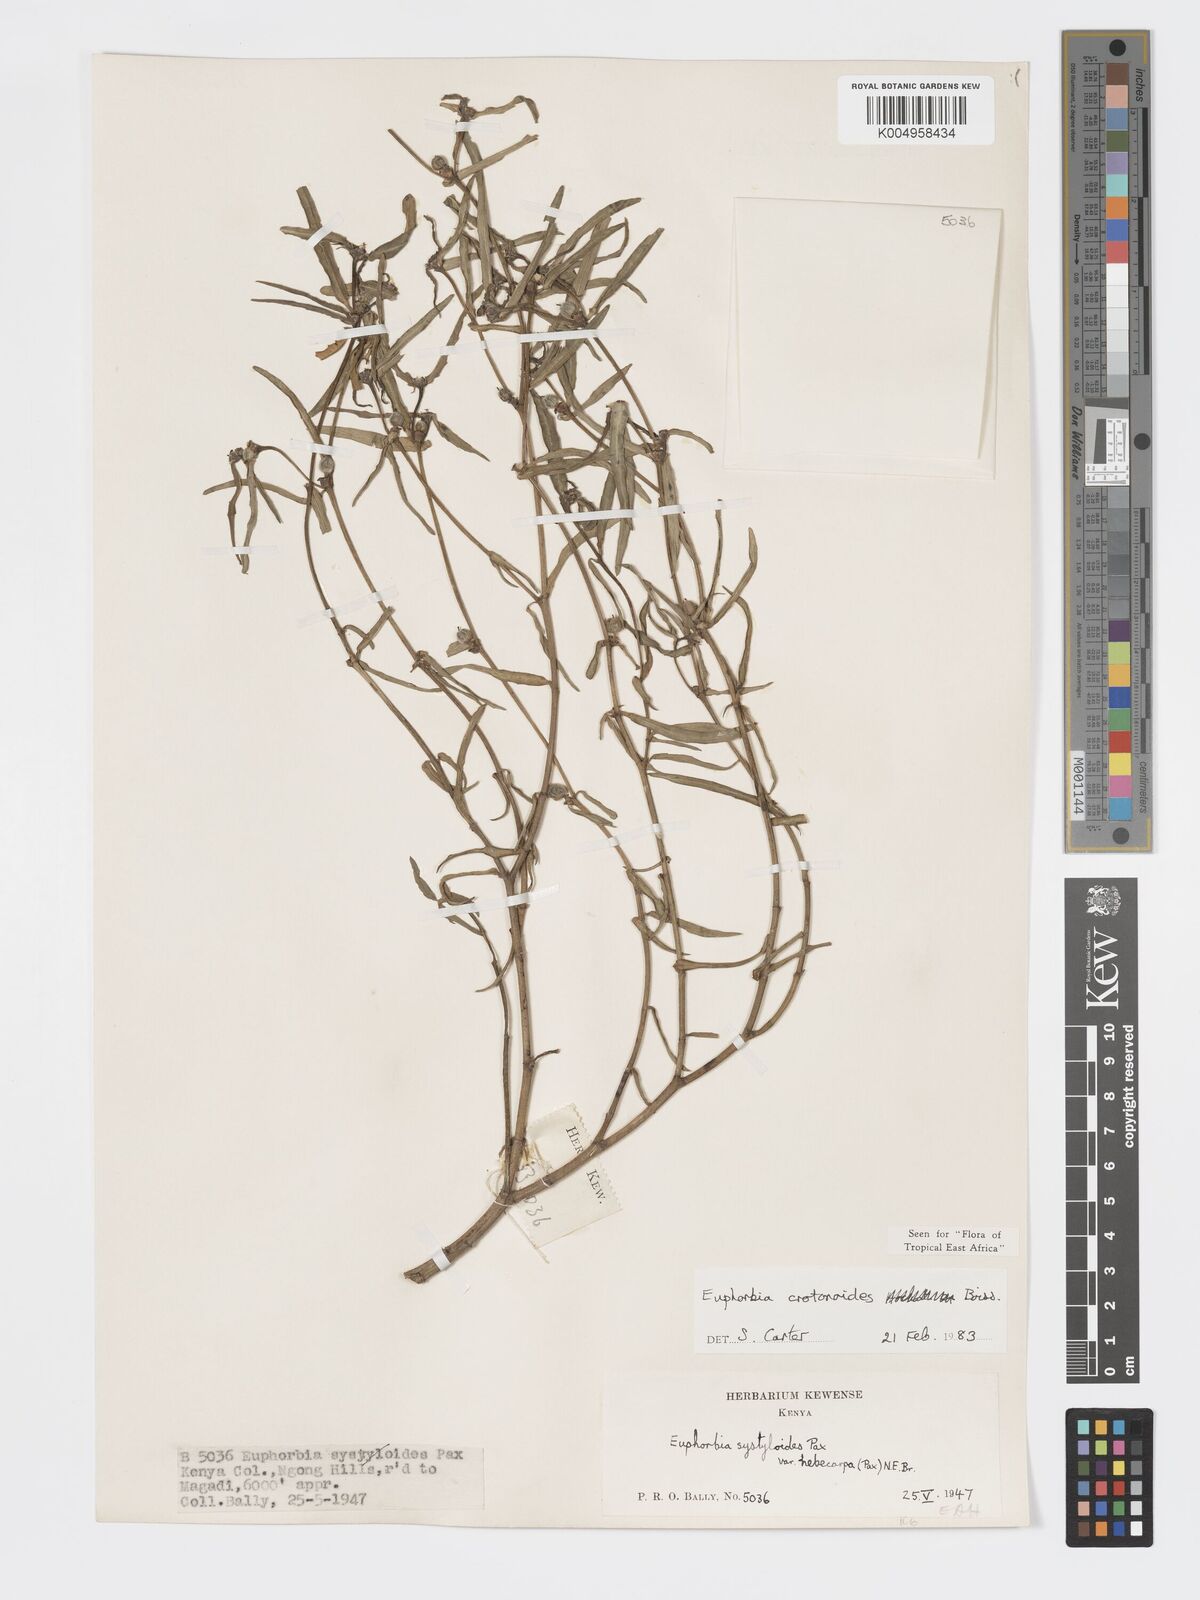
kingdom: Plantae
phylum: Tracheophyta
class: Magnoliopsida
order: Malpighiales
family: Euphorbiaceae
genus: Euphorbia
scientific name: Euphorbia crotonoides
